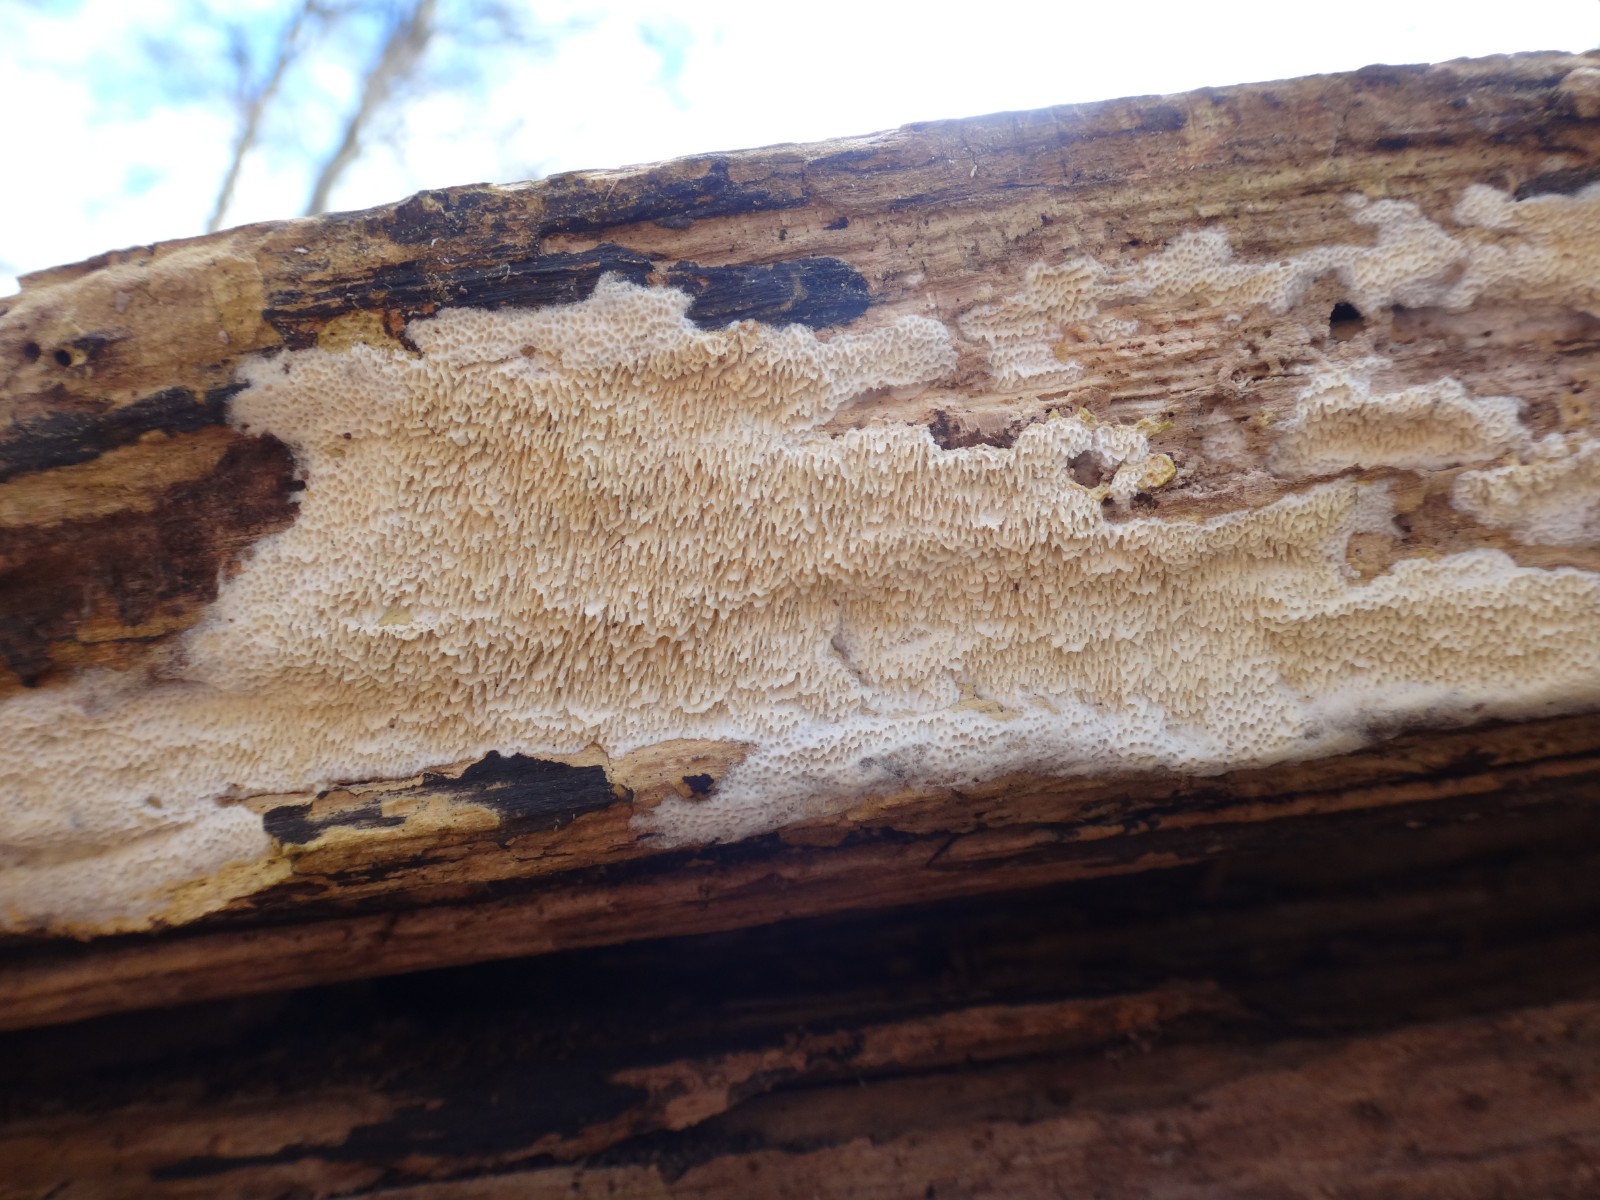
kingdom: Fungi
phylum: Basidiomycota
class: Agaricomycetes
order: Hymenochaetales
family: Schizoporaceae
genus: Xylodon
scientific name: Xylodon subtropicus
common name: labyrint-tandsvamp
